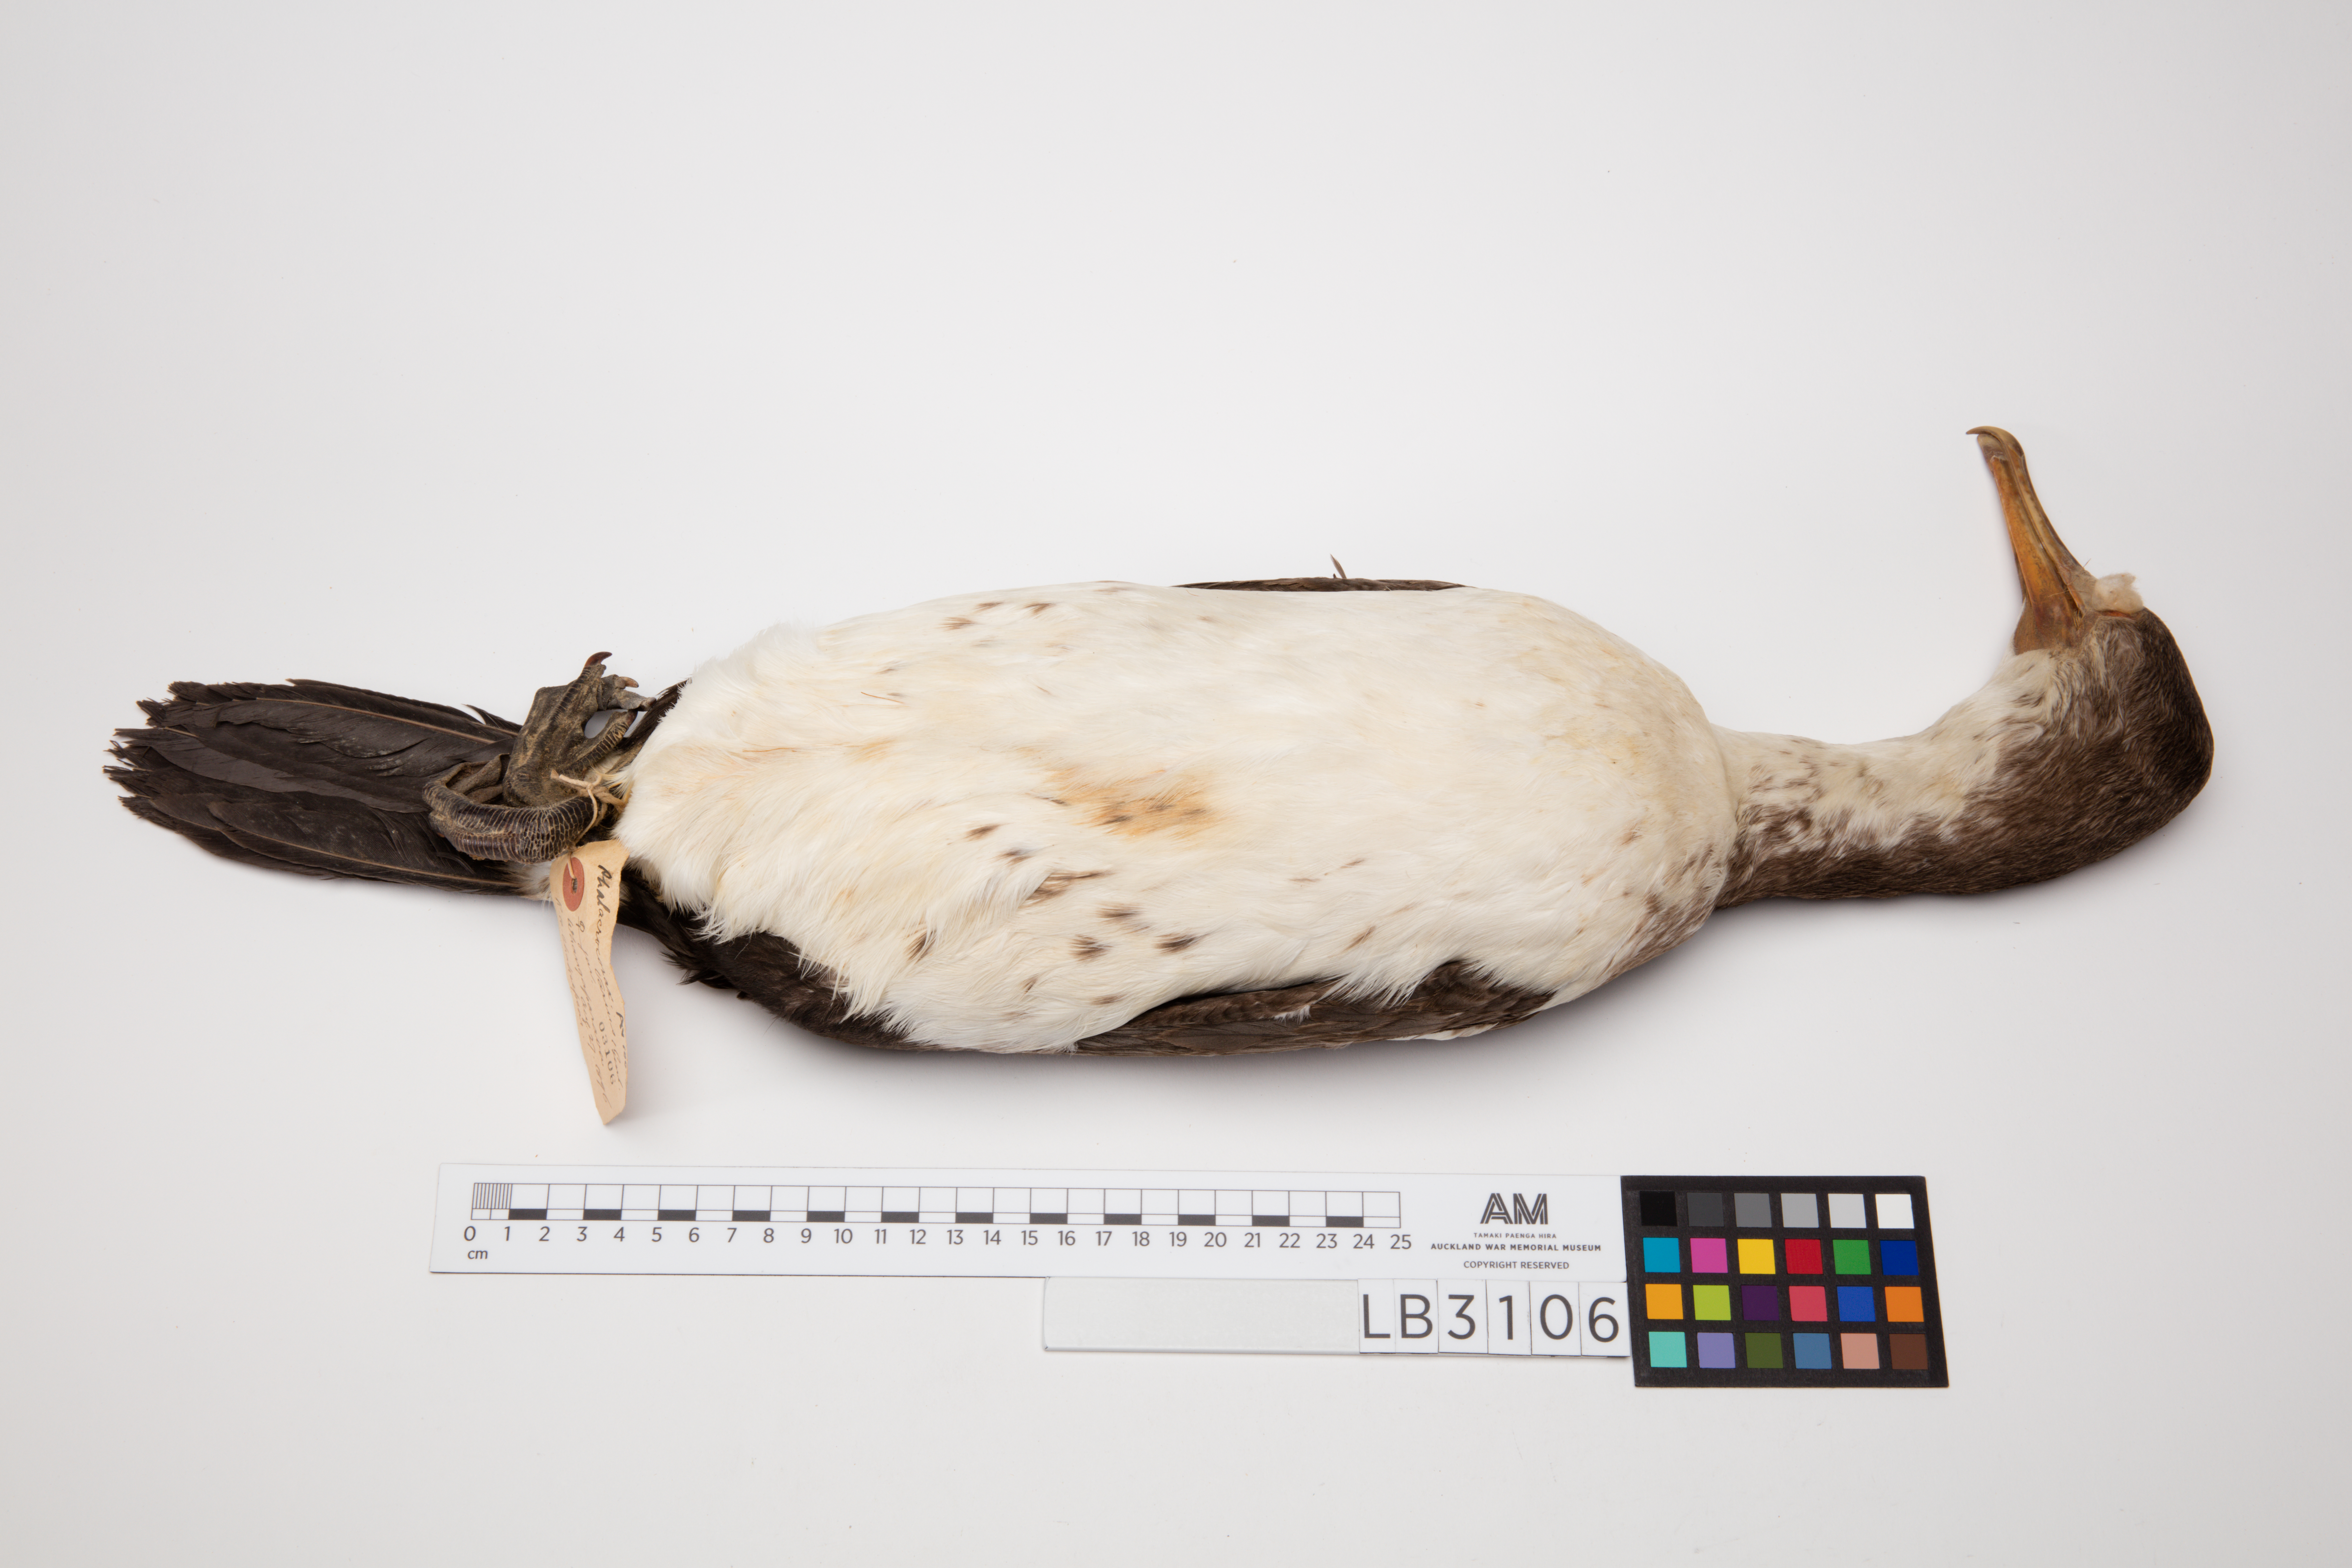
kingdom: Animalia
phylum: Chordata
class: Aves
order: Suliformes
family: Phalacrocoracidae
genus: Phalacrocorax
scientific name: Phalacrocorax varius
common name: Pied cormorant
